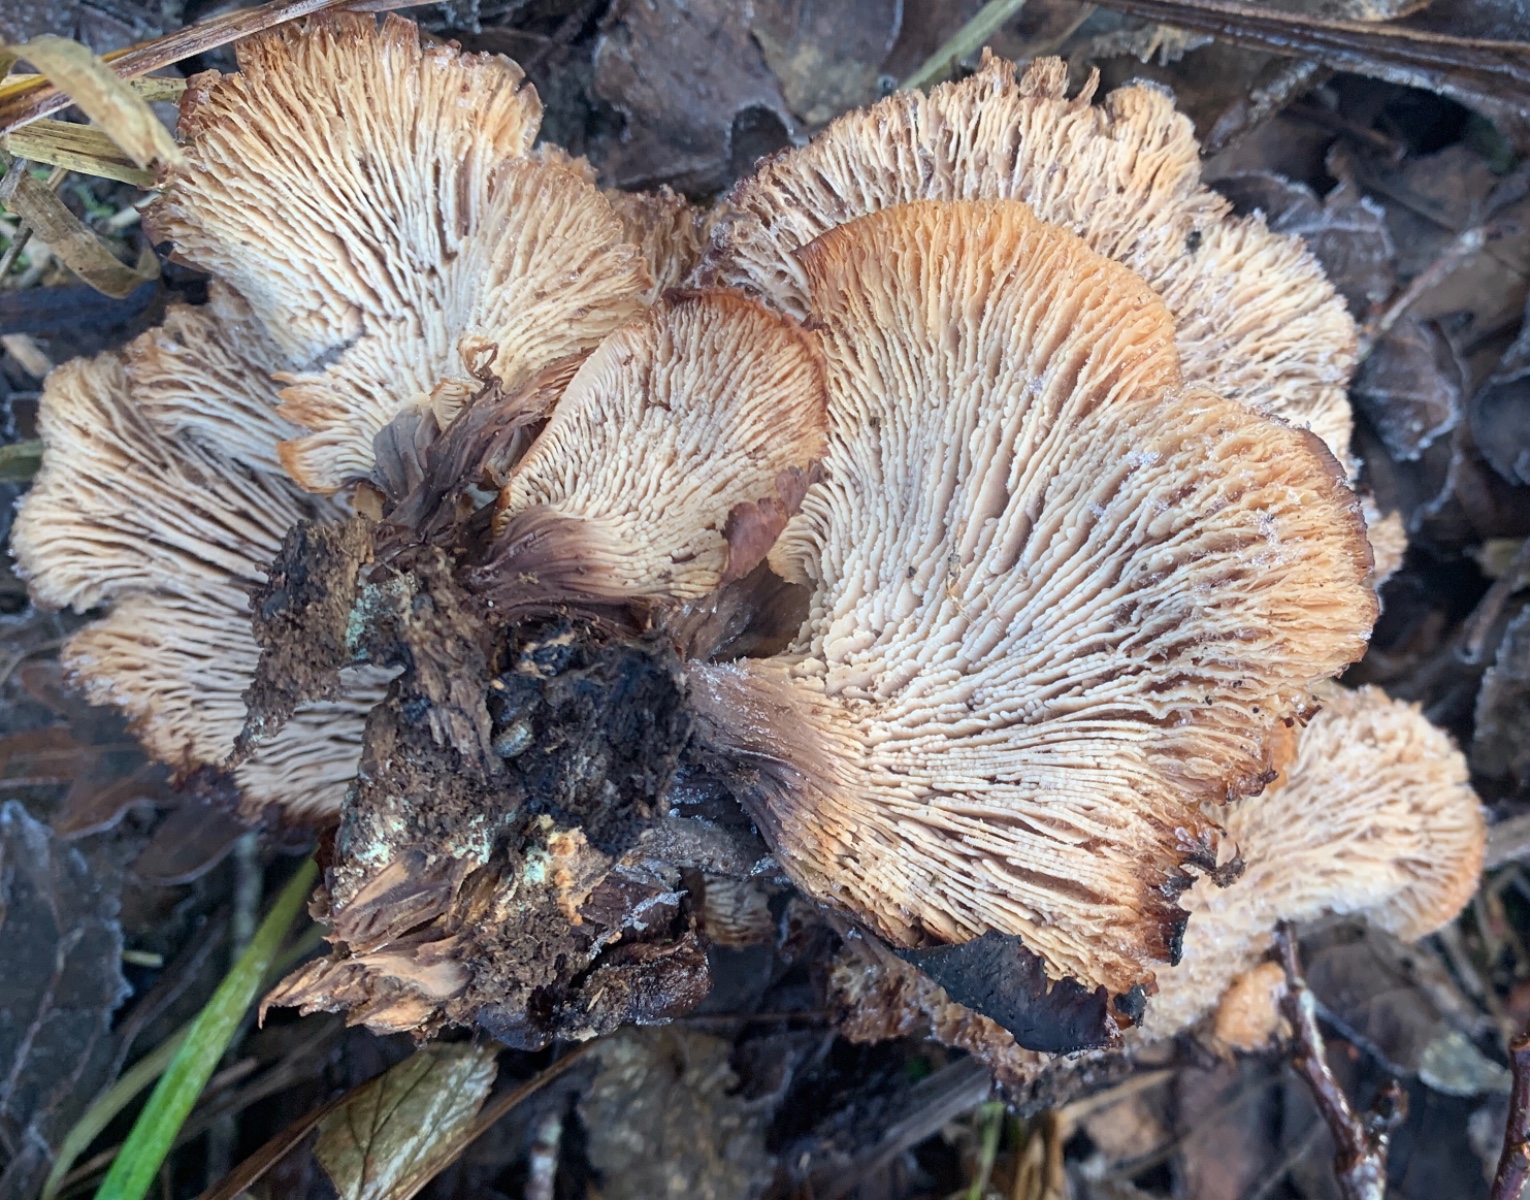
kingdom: Fungi
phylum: Basidiomycota
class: Agaricomycetes
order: Russulales
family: Auriscalpiaceae
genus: Lentinellus
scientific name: Lentinellus cochleatus
